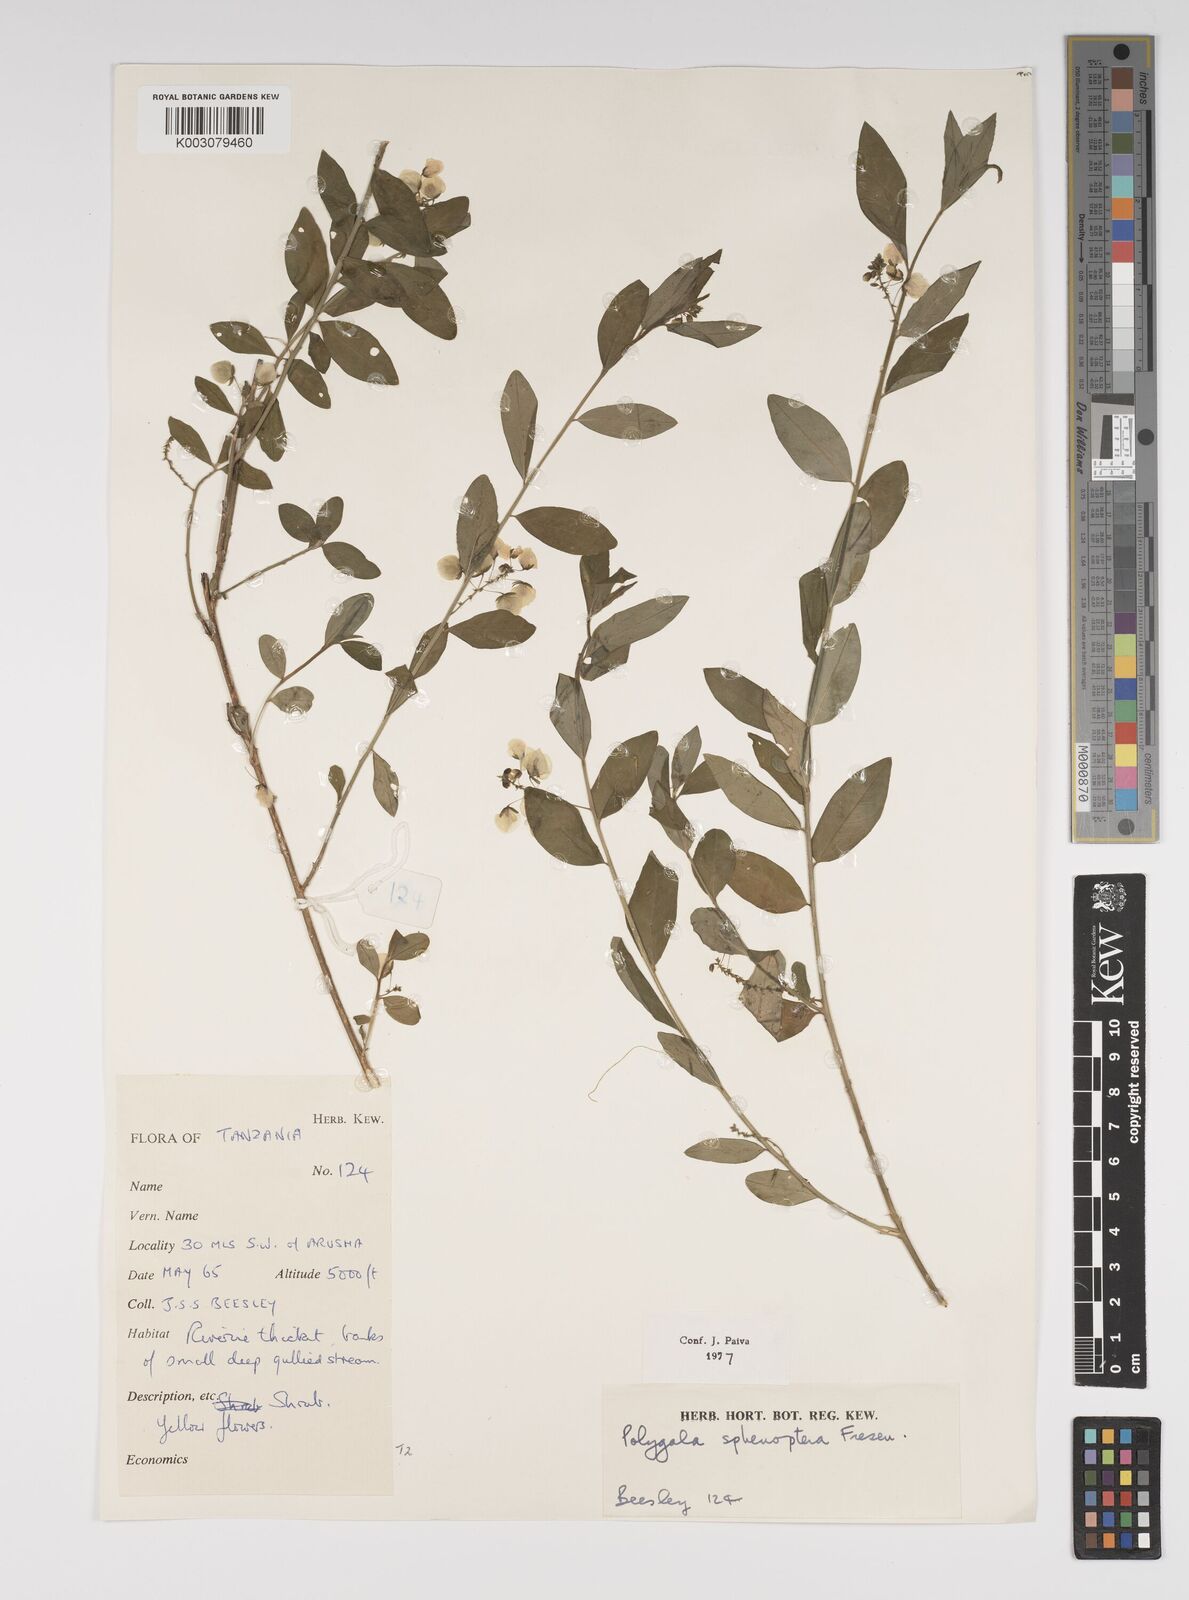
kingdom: Plantae
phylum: Tracheophyta
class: Magnoliopsida
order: Fabales
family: Polygalaceae
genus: Polygala
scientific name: Polygala sphenoptera
